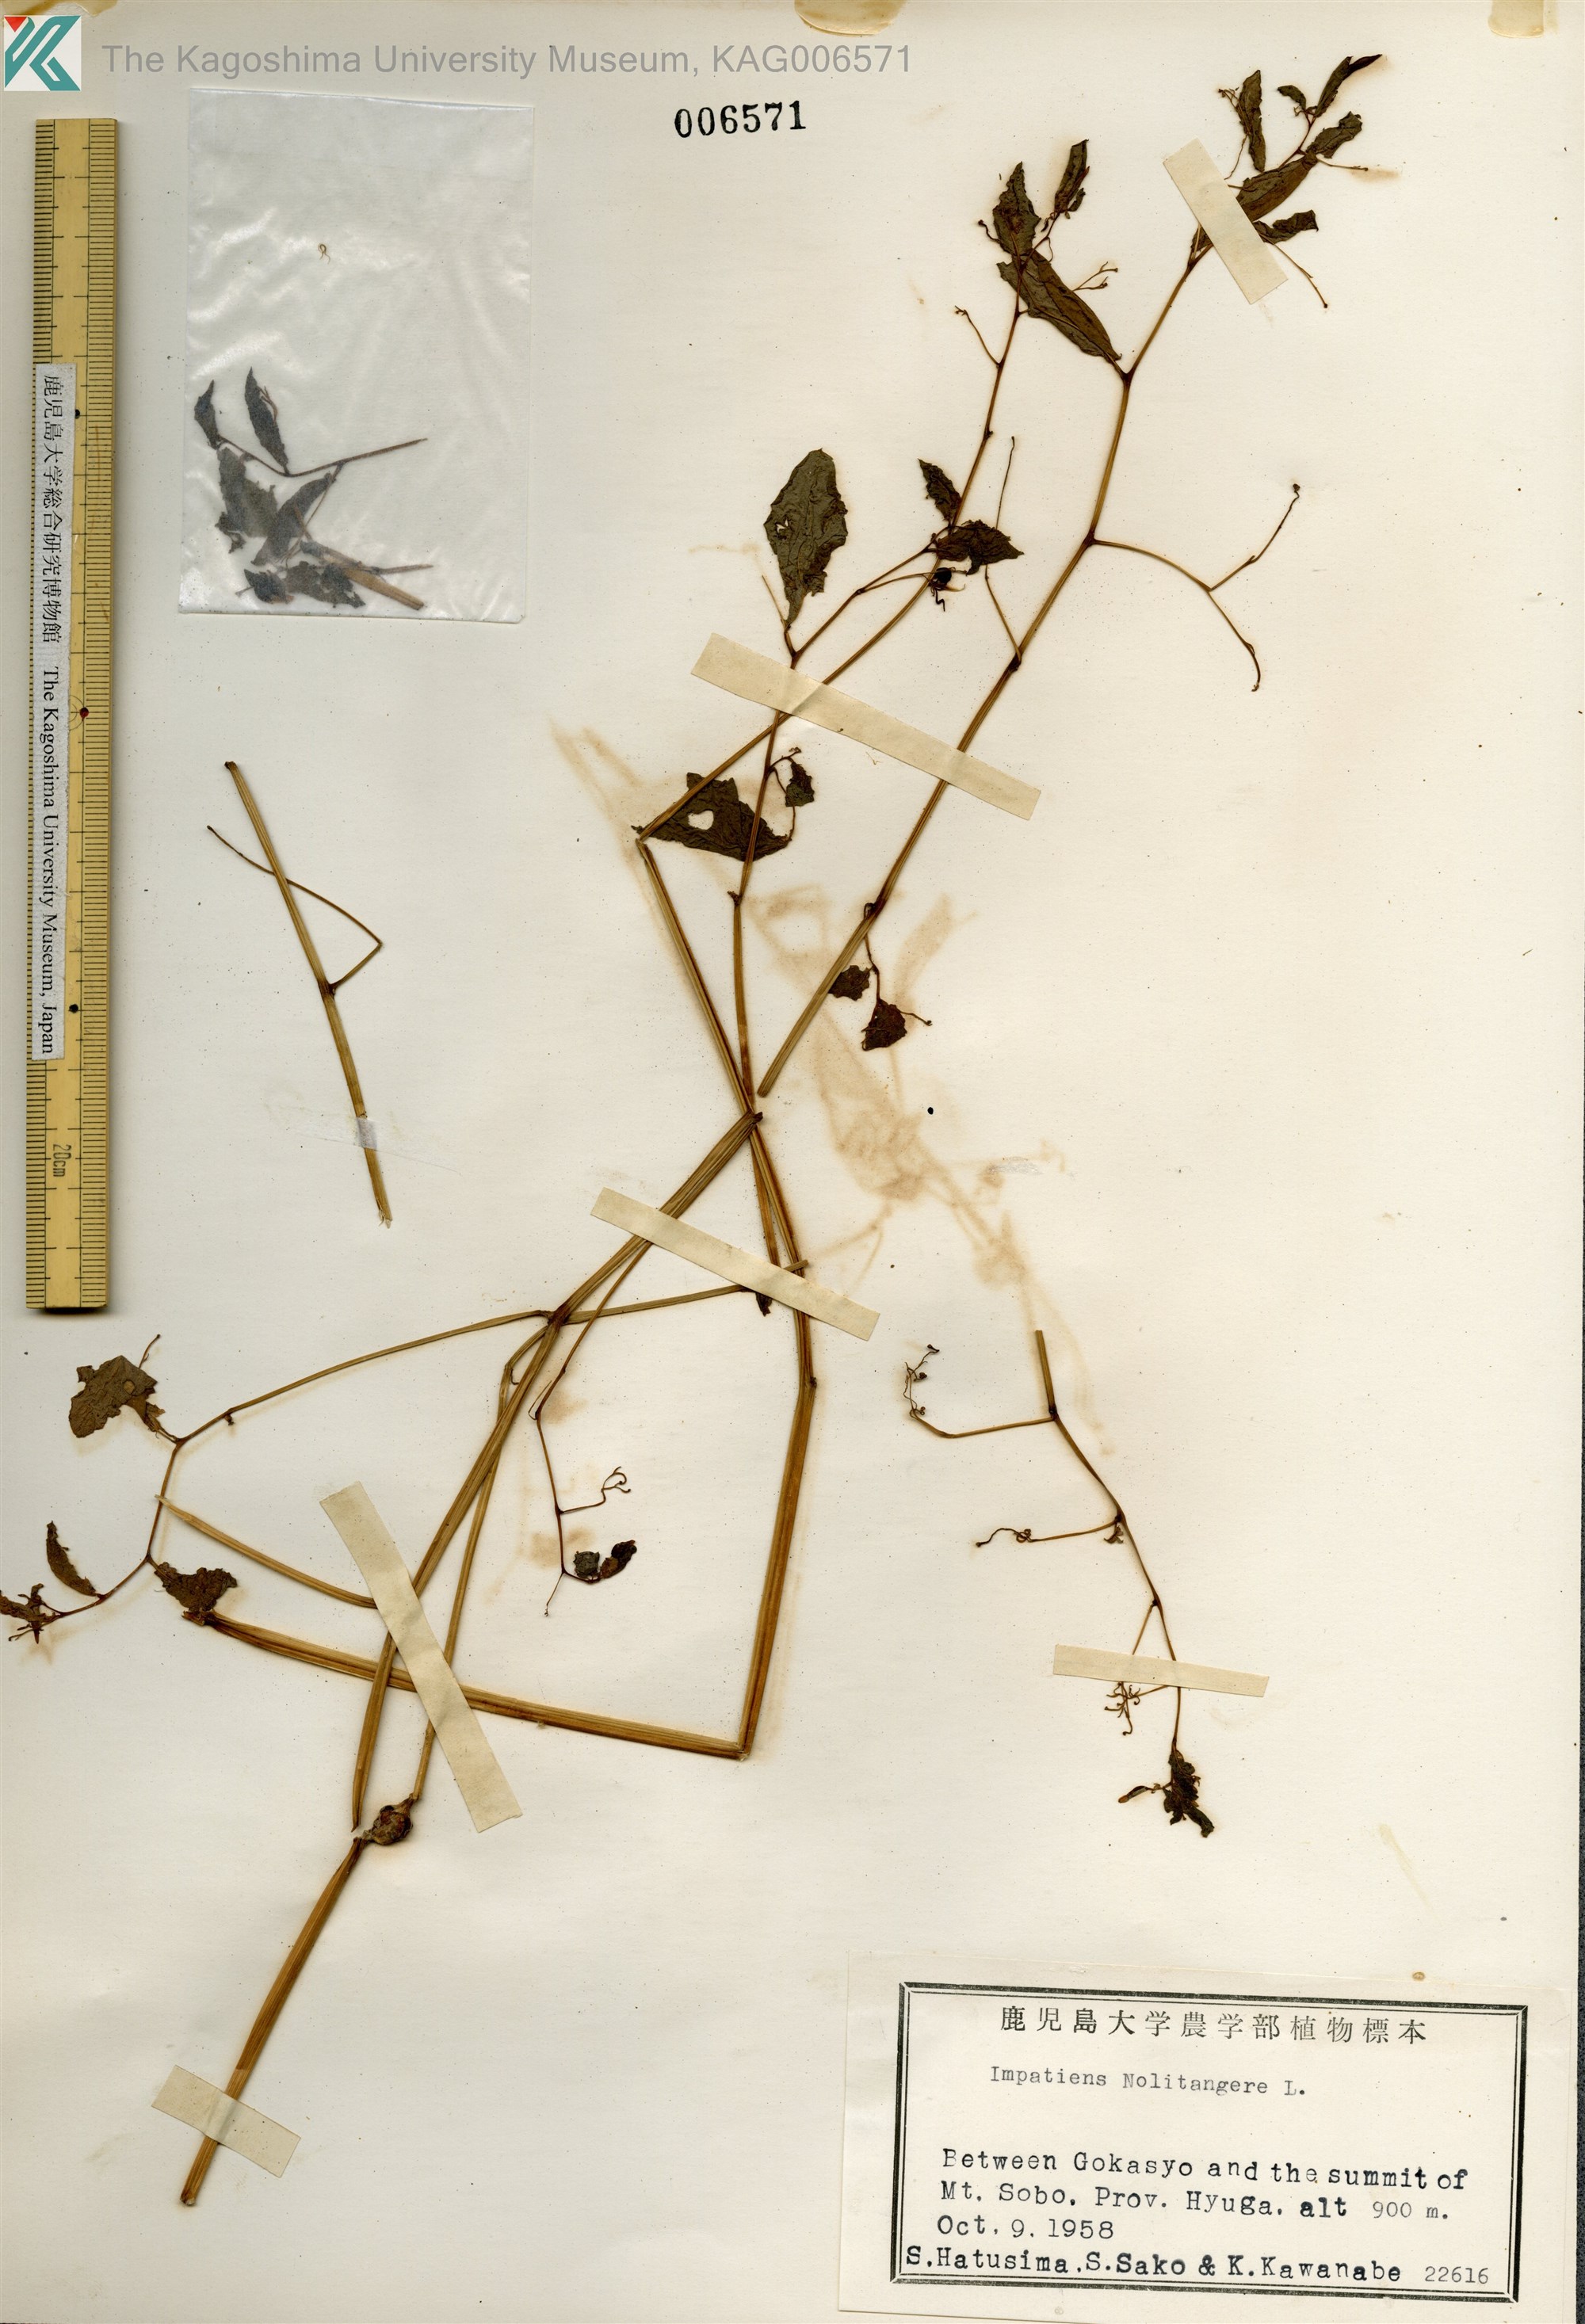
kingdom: Plantae
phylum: Tracheophyta
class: Magnoliopsida
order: Ericales
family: Balsaminaceae
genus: Impatiens
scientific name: Impatiens noli-tangere
